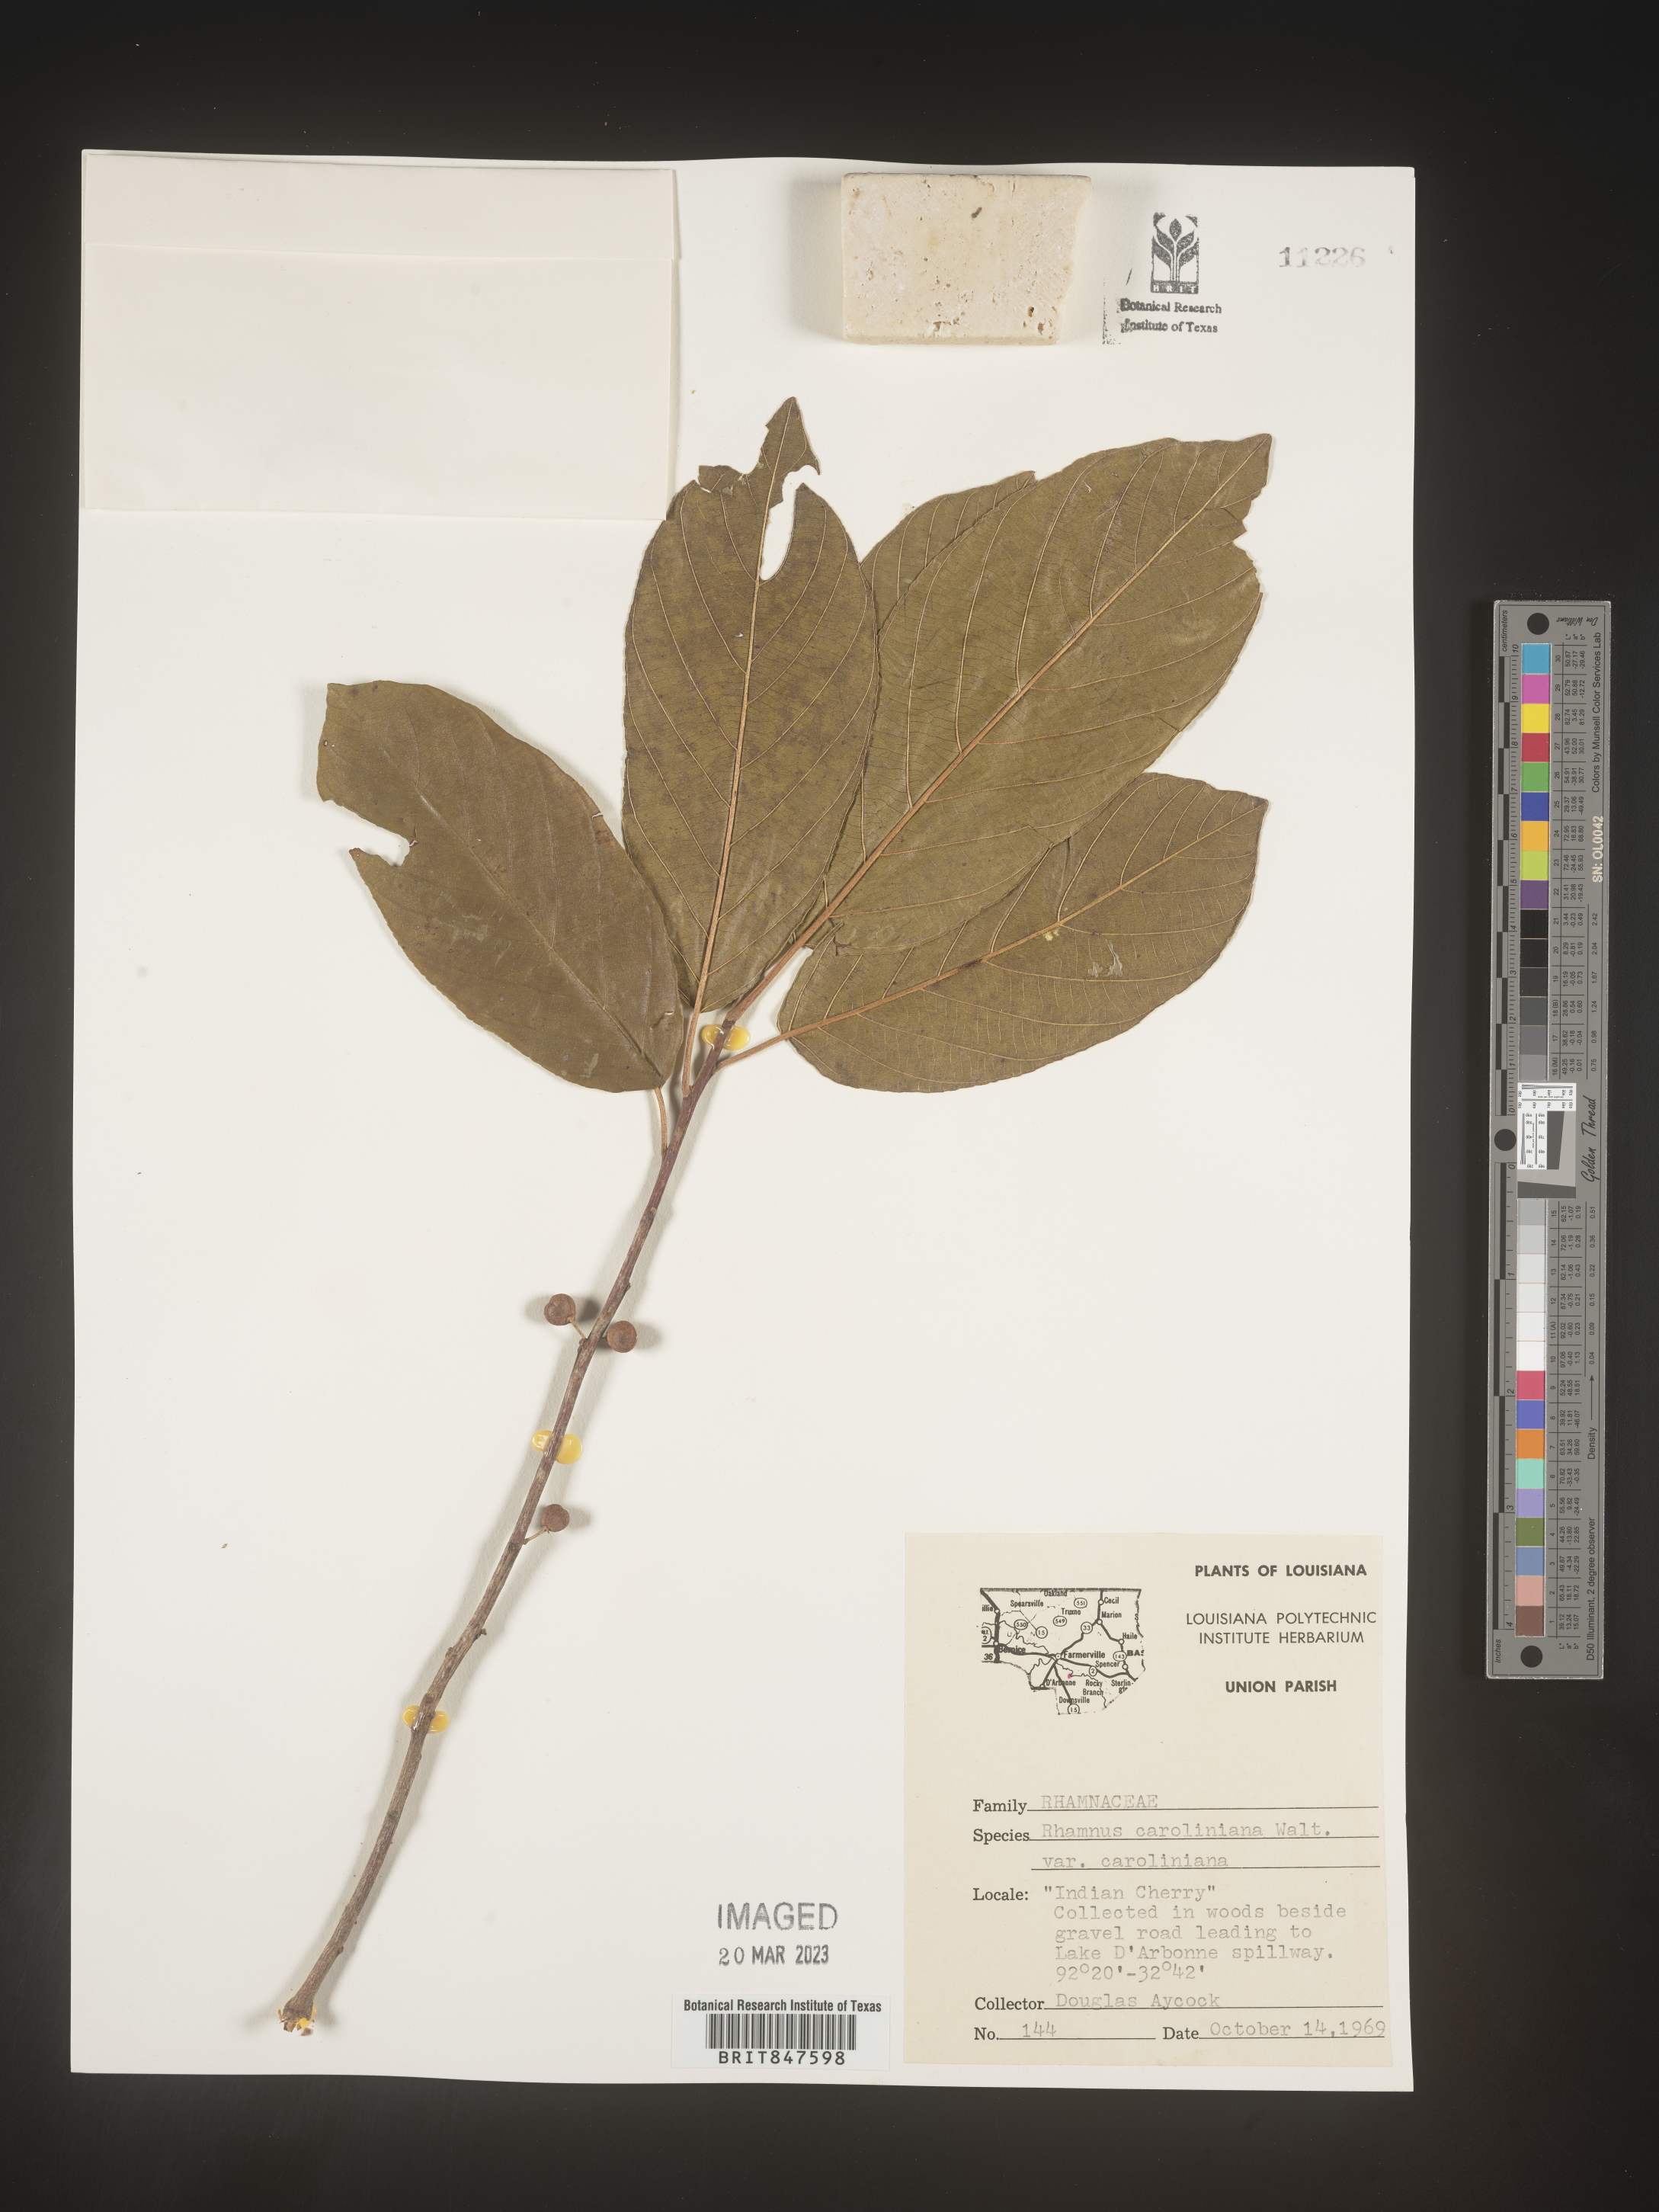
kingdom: Plantae
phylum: Tracheophyta
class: Magnoliopsida
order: Rosales
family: Rhamnaceae
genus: Frangula
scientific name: Frangula caroliniana
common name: Carolina buckthorn
